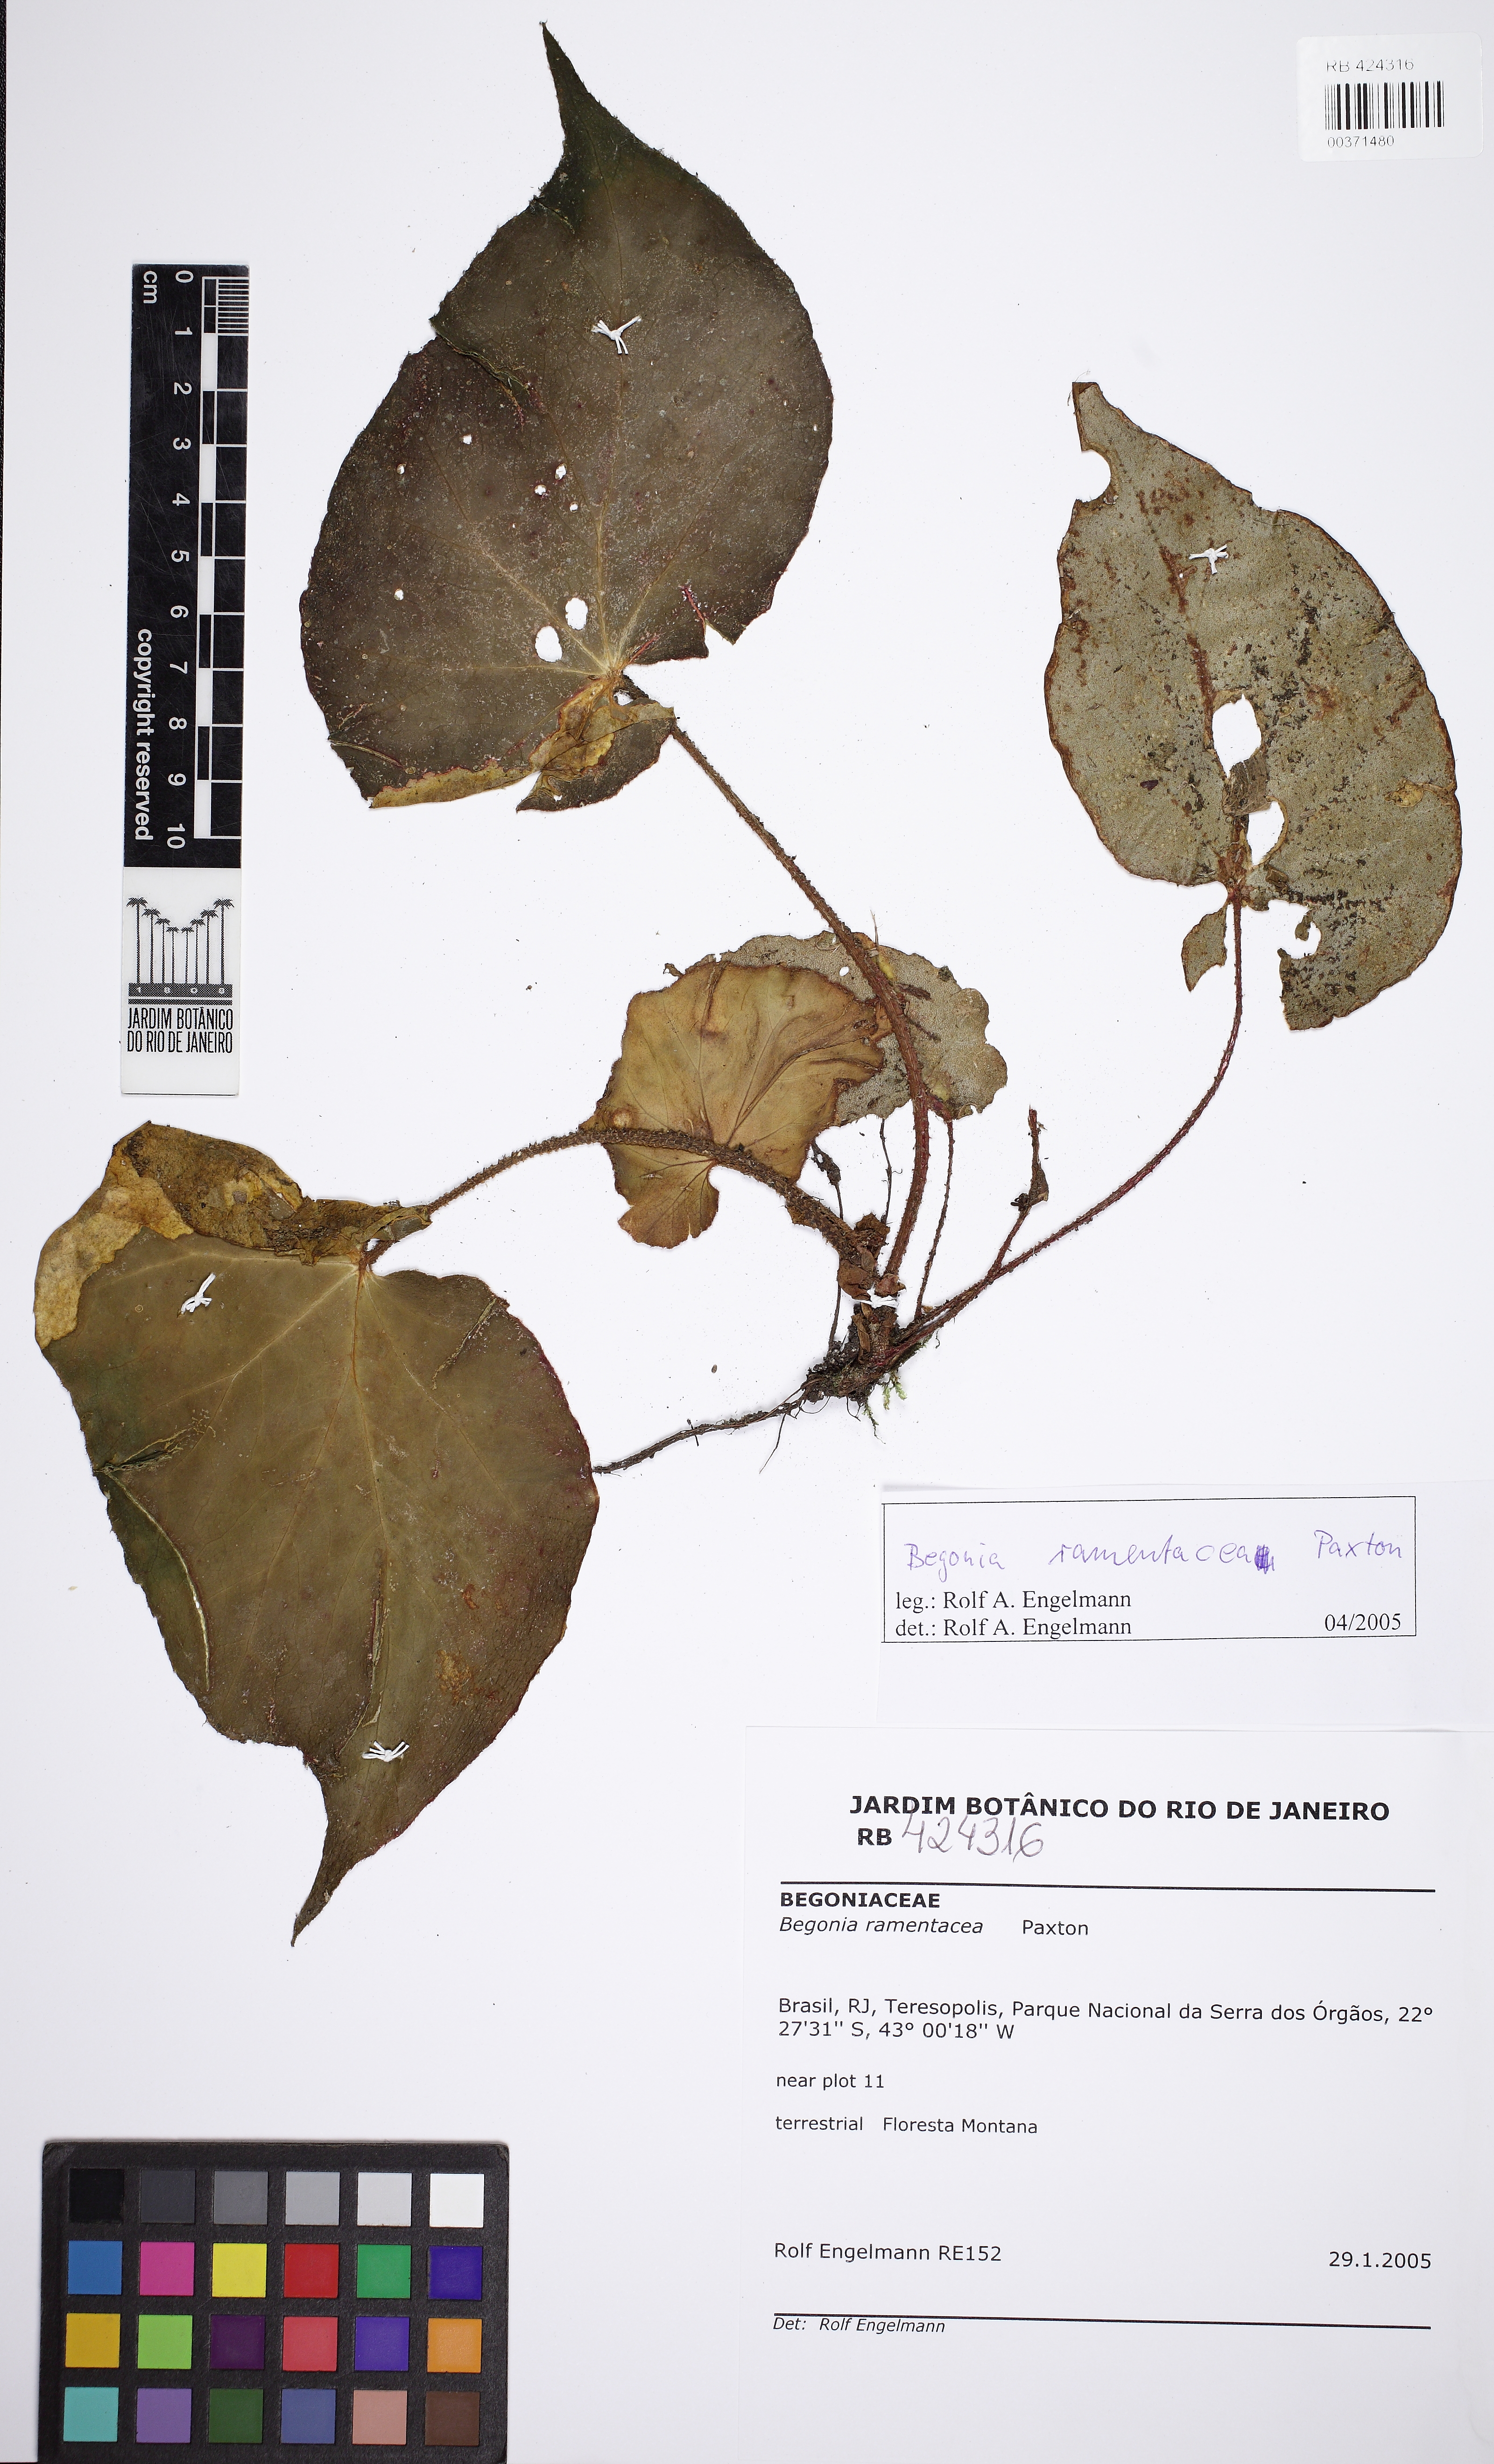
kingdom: Plantae
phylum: Tracheophyta
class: Magnoliopsida
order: Cucurbitales
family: Begoniaceae
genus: Begonia
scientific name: Begonia ramentacea
